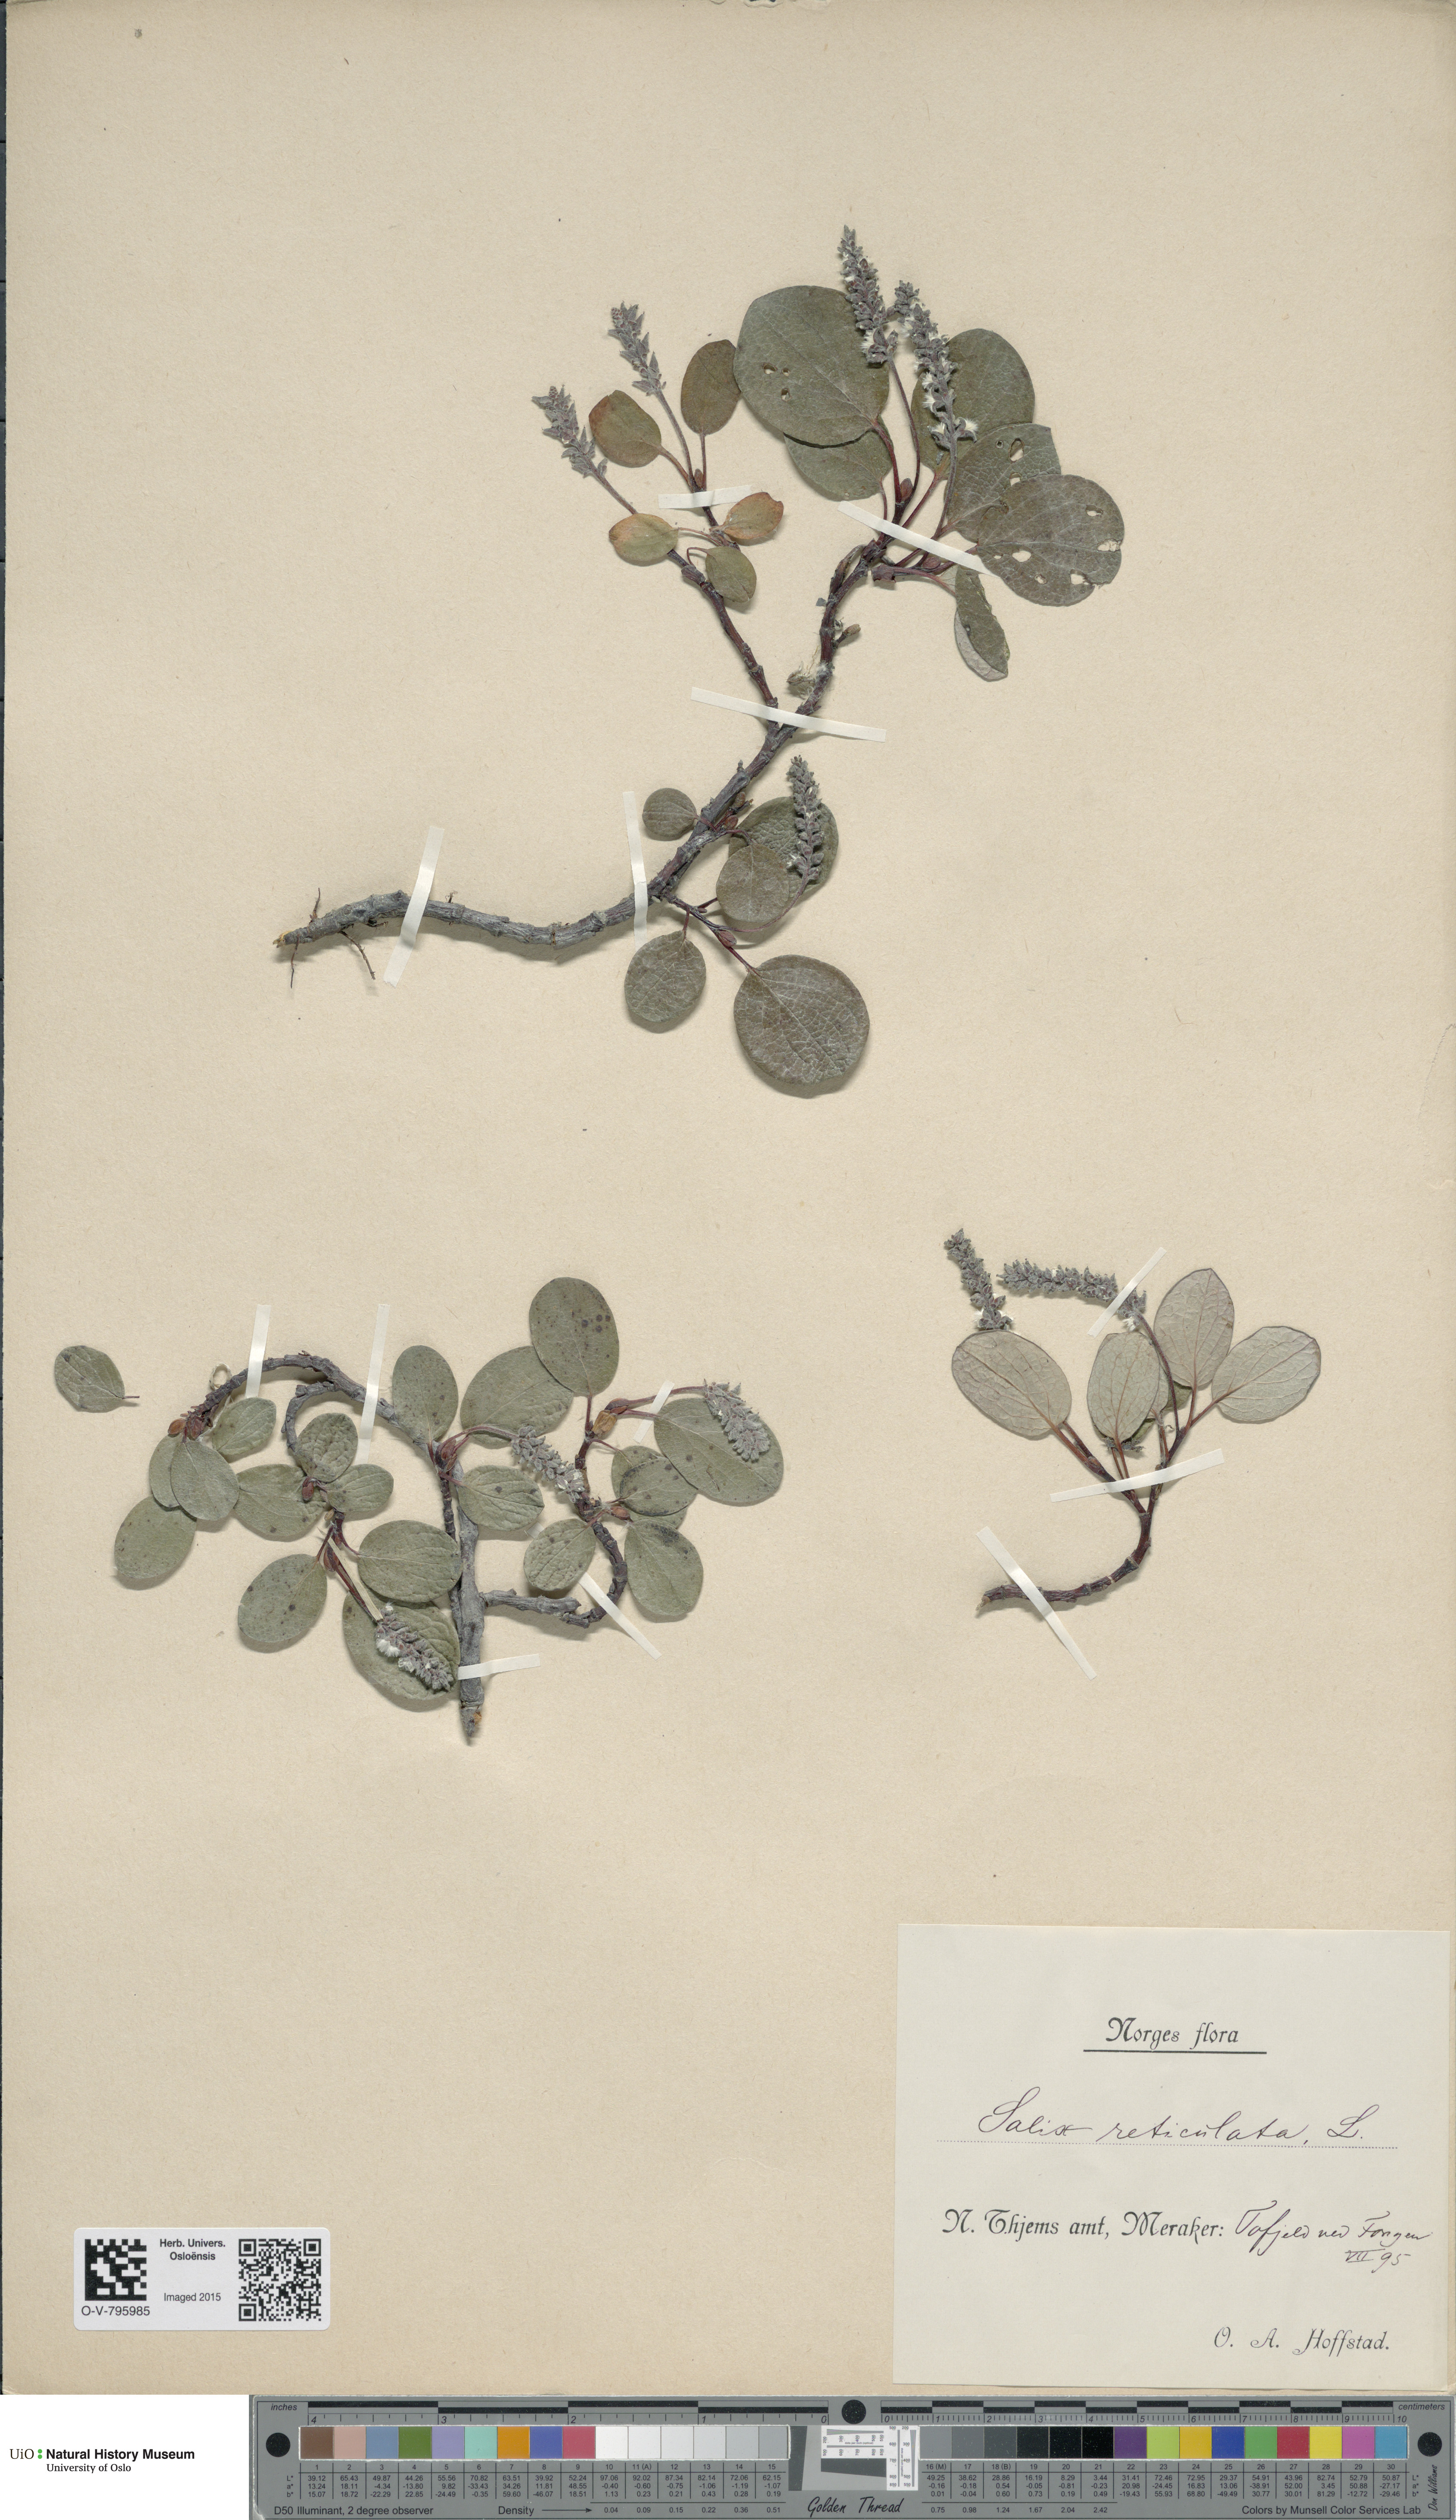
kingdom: Plantae
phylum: Tracheophyta
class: Magnoliopsida
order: Malpighiales
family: Salicaceae
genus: Salix
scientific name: Salix reticulata
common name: Net-leaved willow
